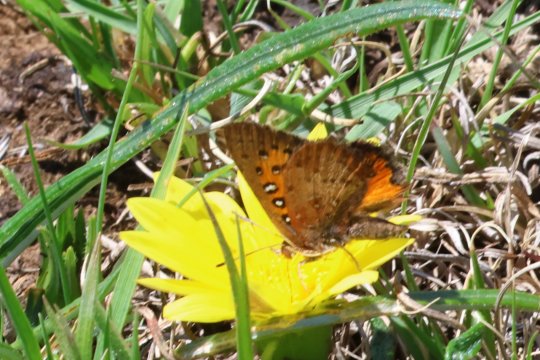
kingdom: Animalia
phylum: Arthropoda
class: Insecta
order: Lepidoptera
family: Lycaenidae
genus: Aloeides
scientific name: Aloeides aranda
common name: Aranda Copper
